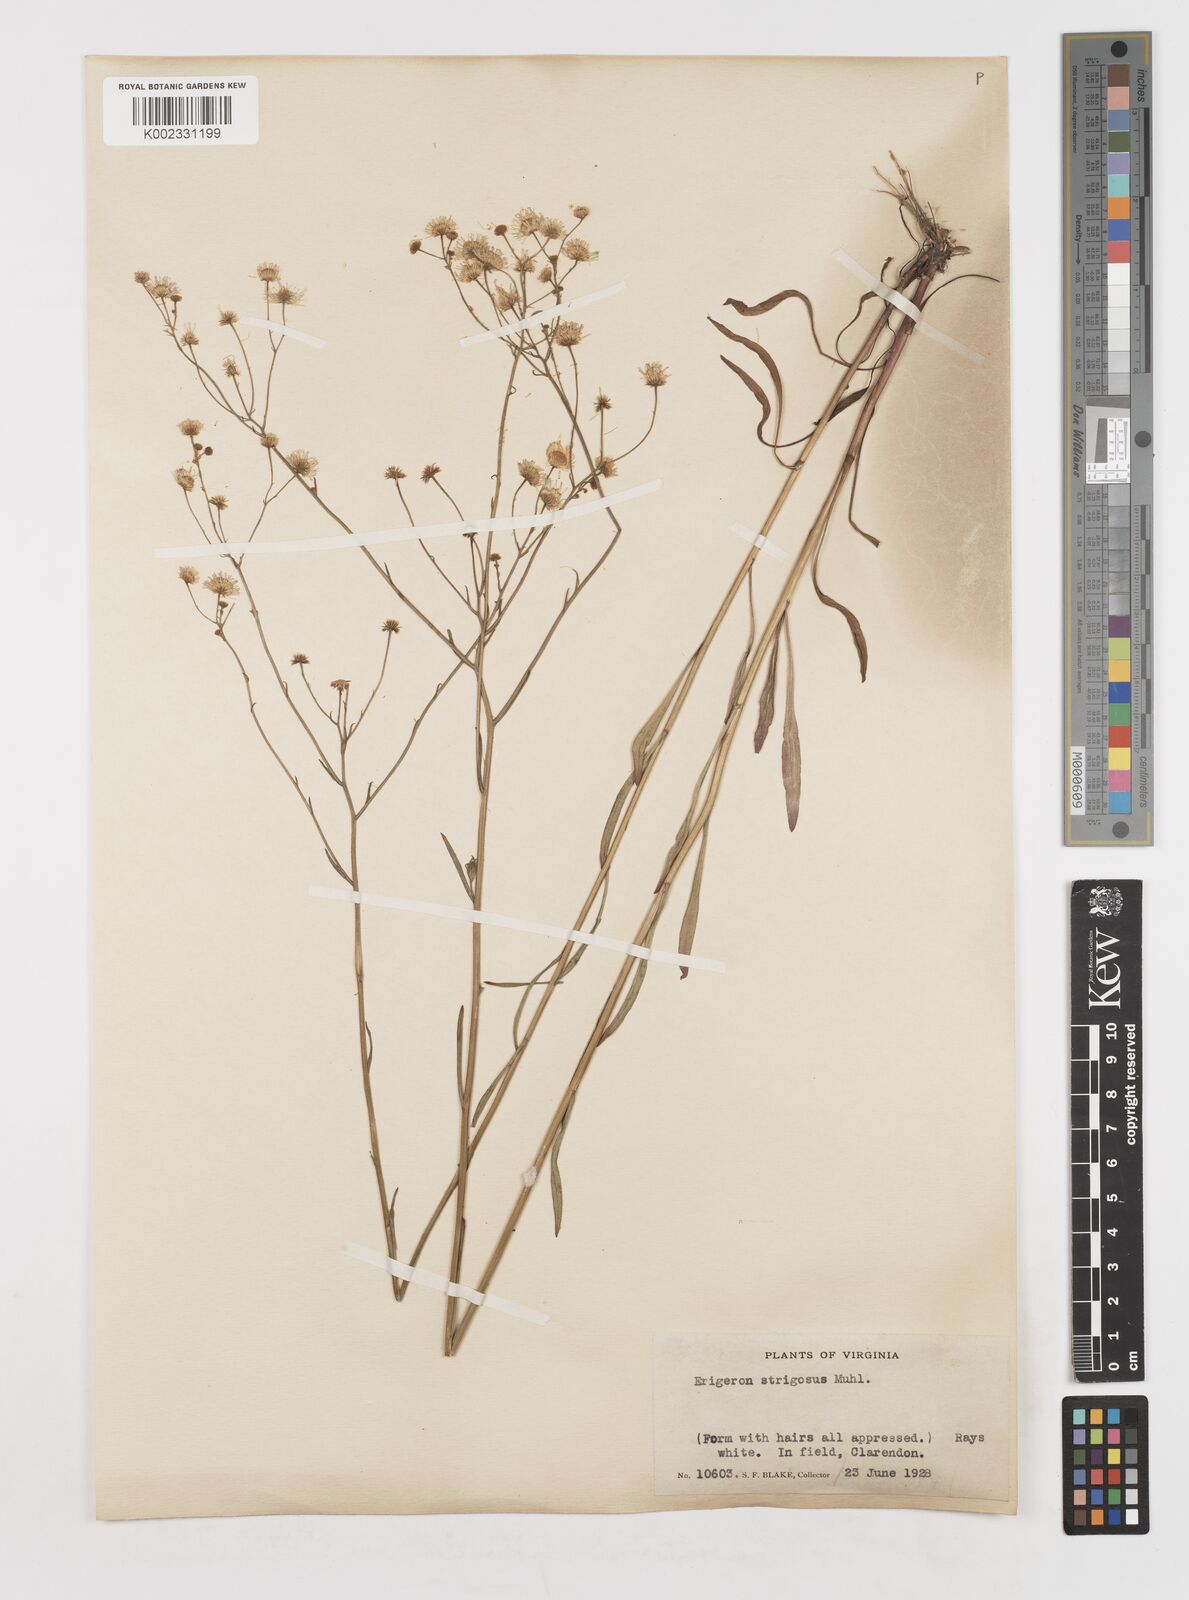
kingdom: Plantae
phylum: Tracheophyta
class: Magnoliopsida
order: Asterales
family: Asteraceae
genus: Erigeron
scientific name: Erigeron strigosus
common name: Common eastern fleabane
